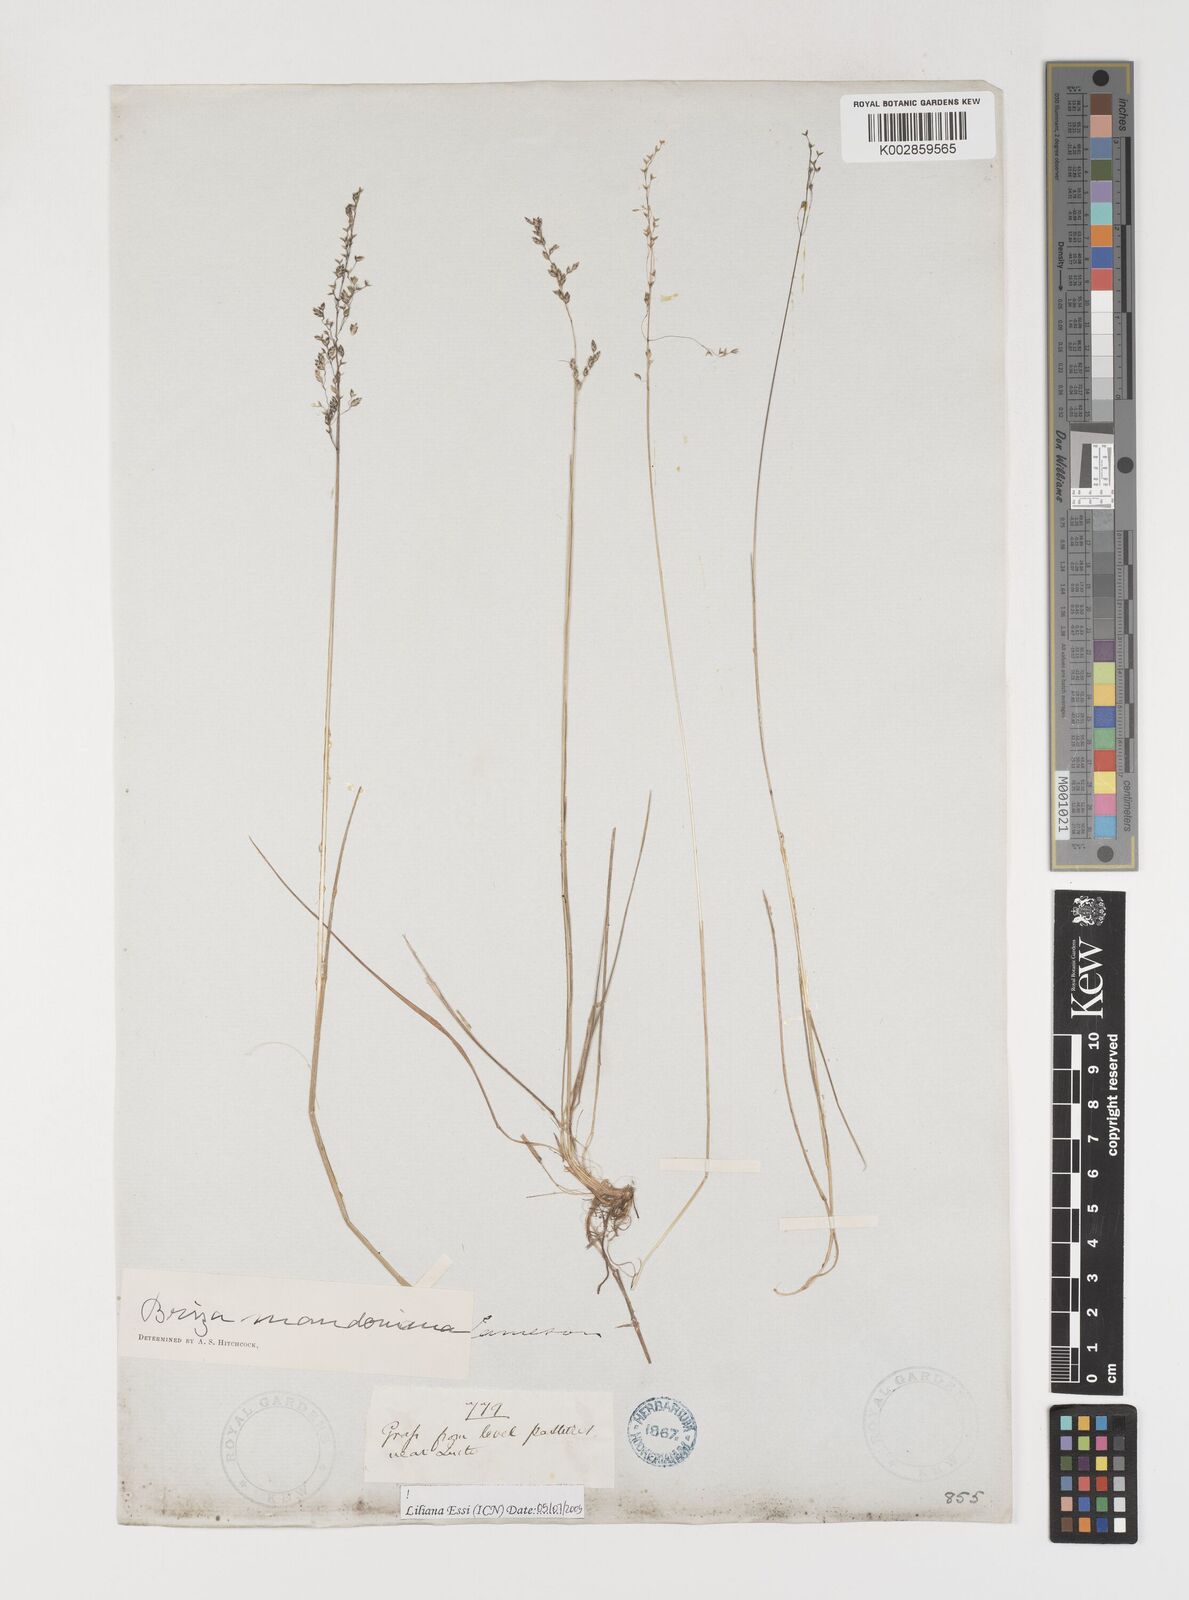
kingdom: Plantae
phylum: Tracheophyta
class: Liliopsida
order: Poales
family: Poaceae
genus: Poidium
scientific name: Poidium monandrum
